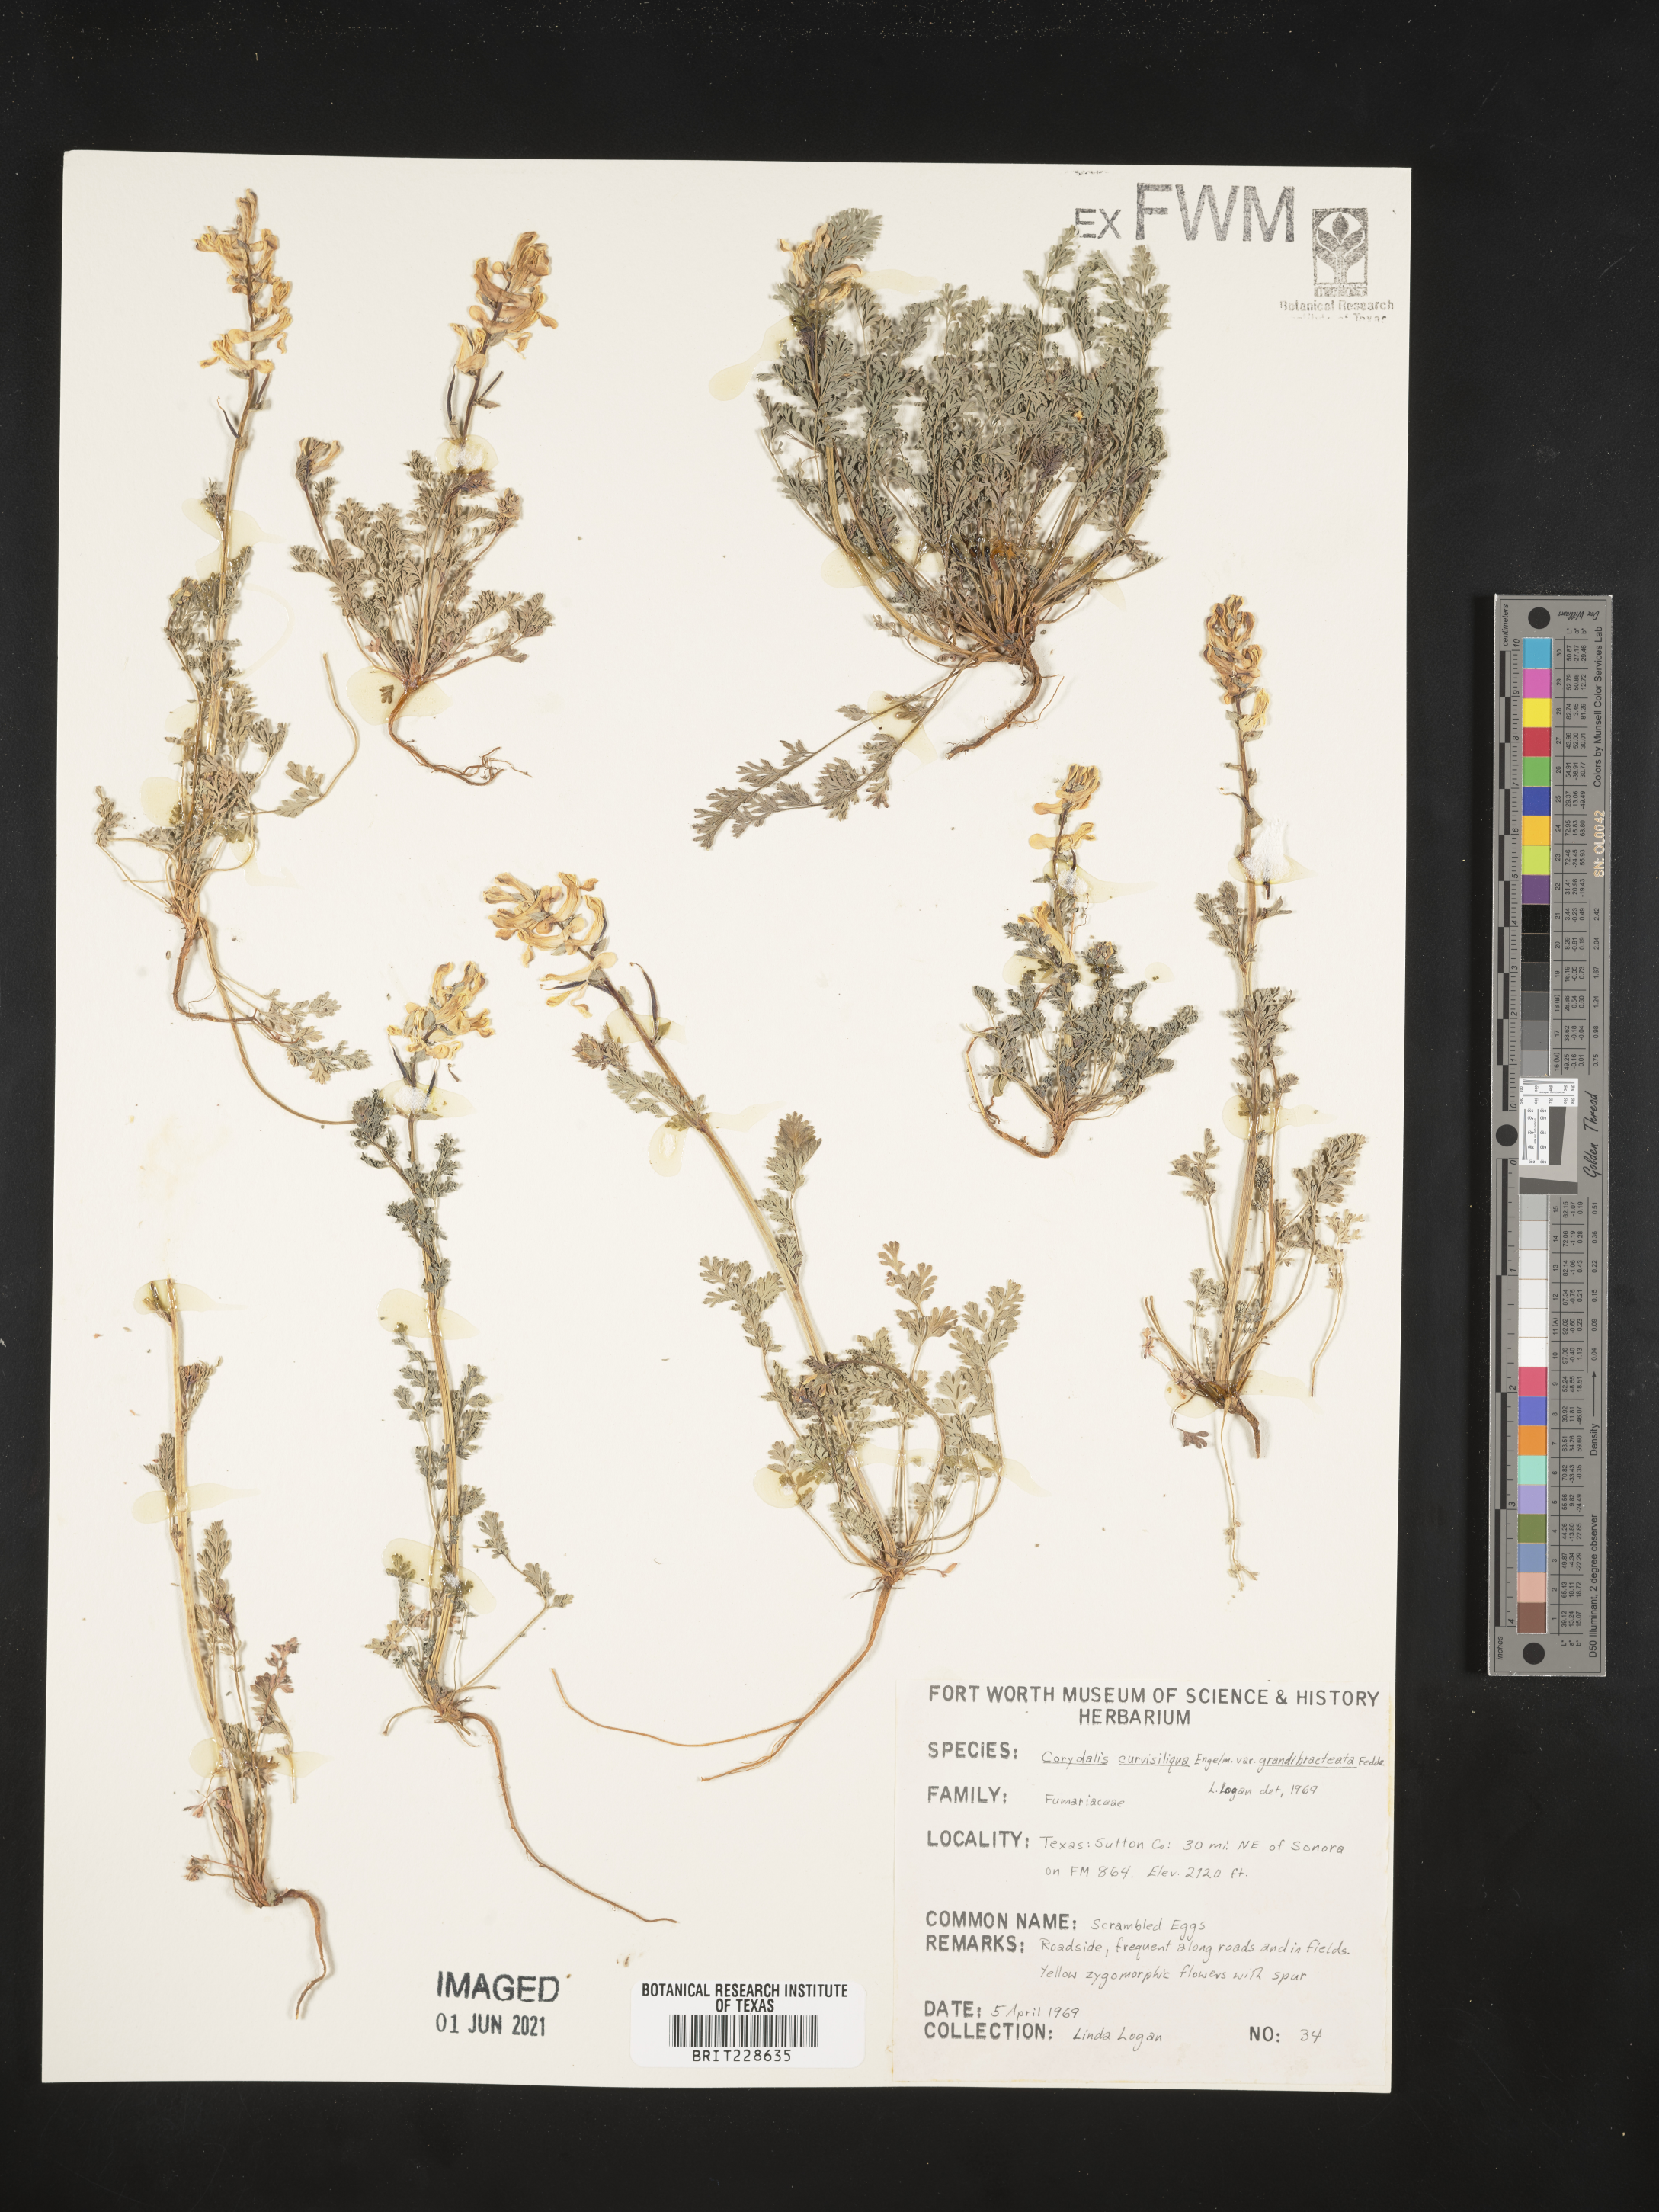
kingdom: Plantae
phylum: Tracheophyta
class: Magnoliopsida
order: Ranunculales
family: Papaveraceae
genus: Corydalis
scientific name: Corydalis curvisiliqua
